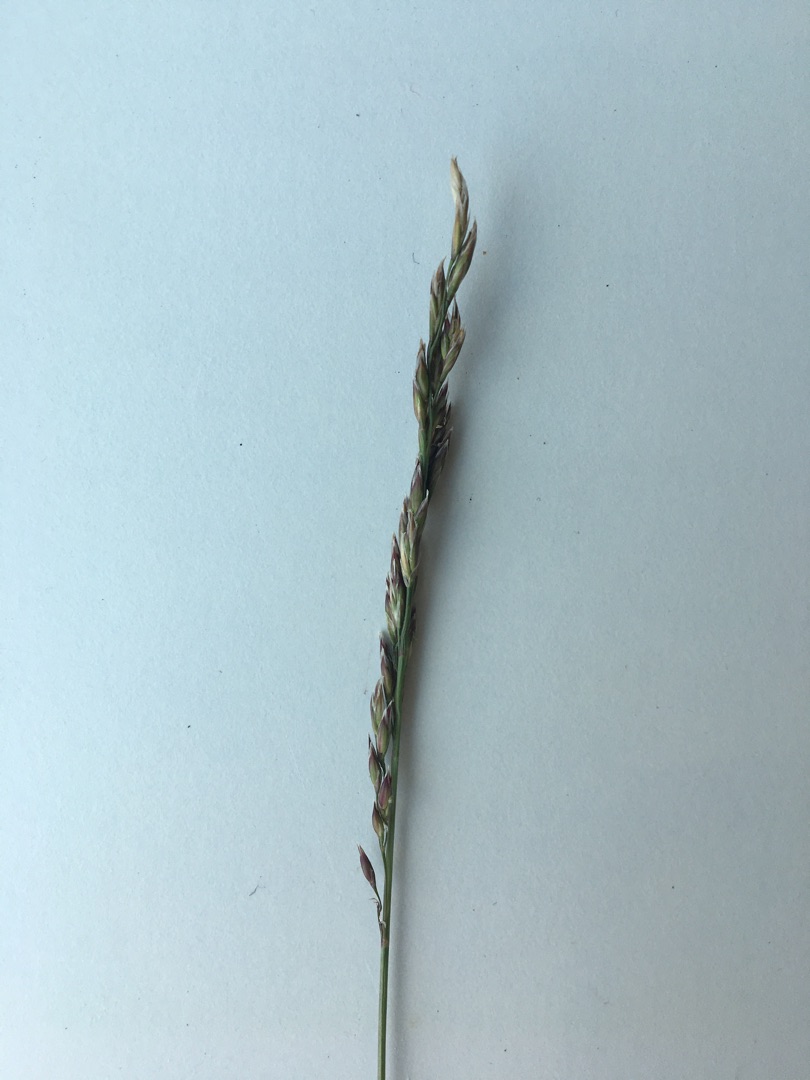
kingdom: Plantae
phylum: Tracheophyta
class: Liliopsida
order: Poales
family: Poaceae
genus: Festuca
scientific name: Festuca
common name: Svingelslægten
